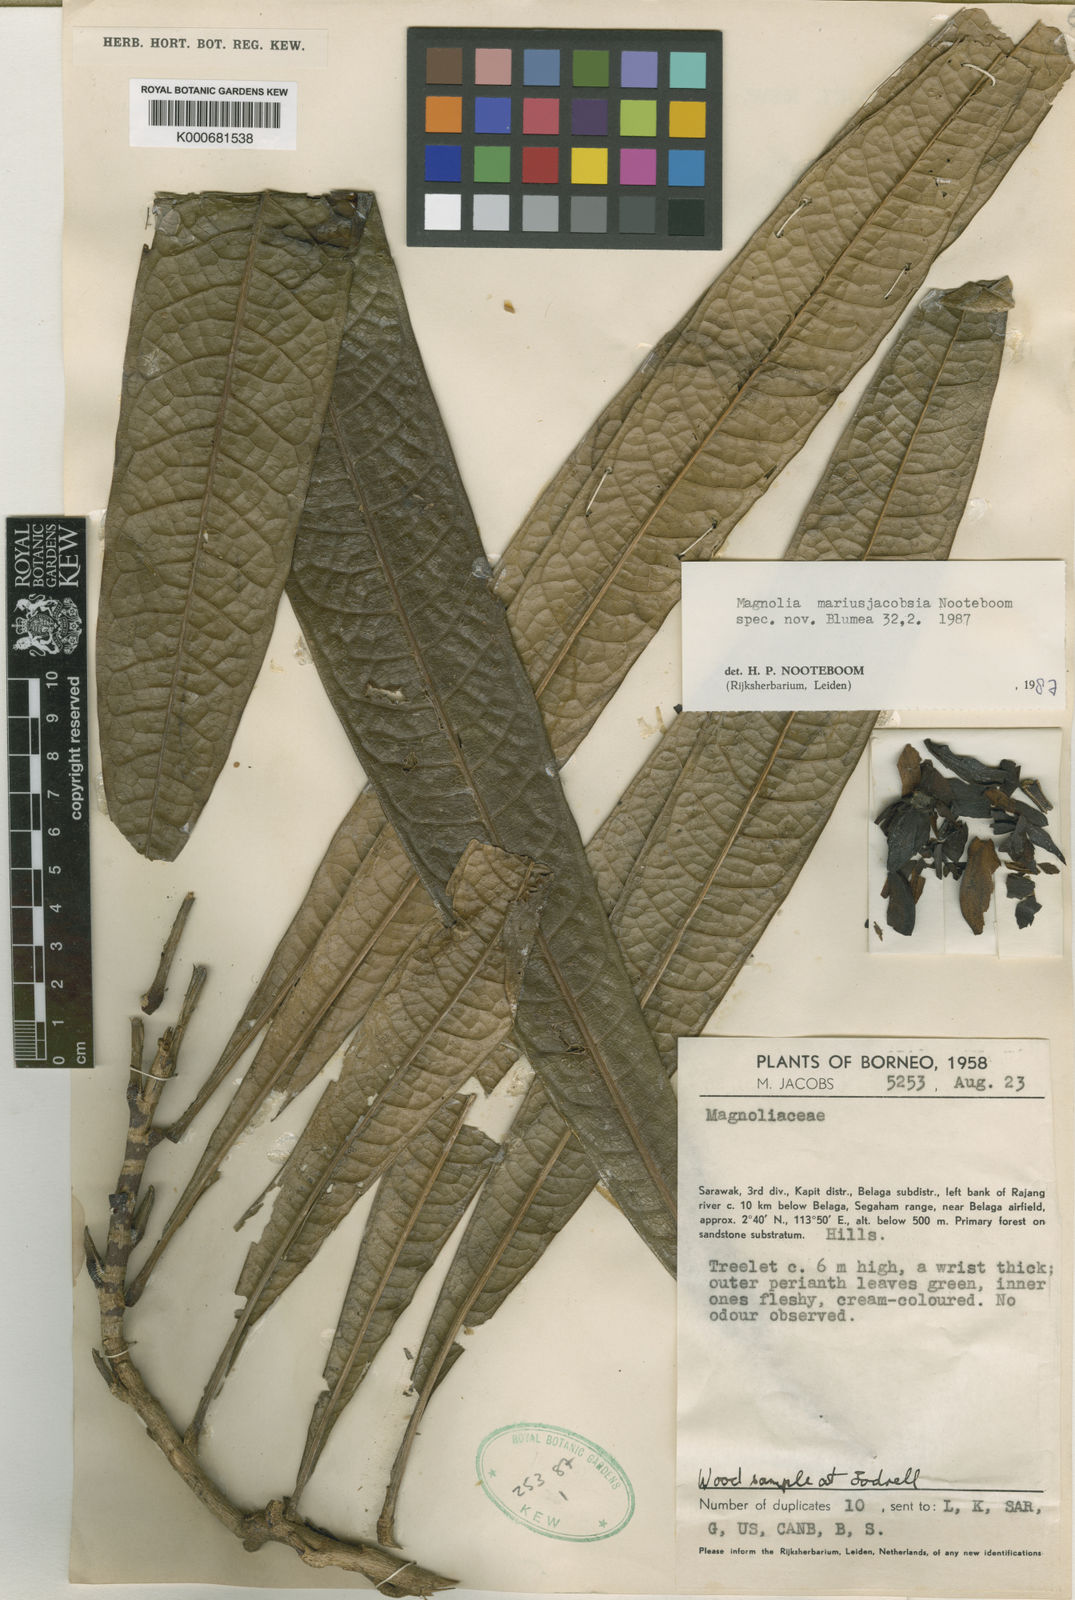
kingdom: Plantae
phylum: Tracheophyta
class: Magnoliopsida
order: Magnoliales
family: Magnoliaceae
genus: Magnolia
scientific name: Magnolia mariusjacobsia
